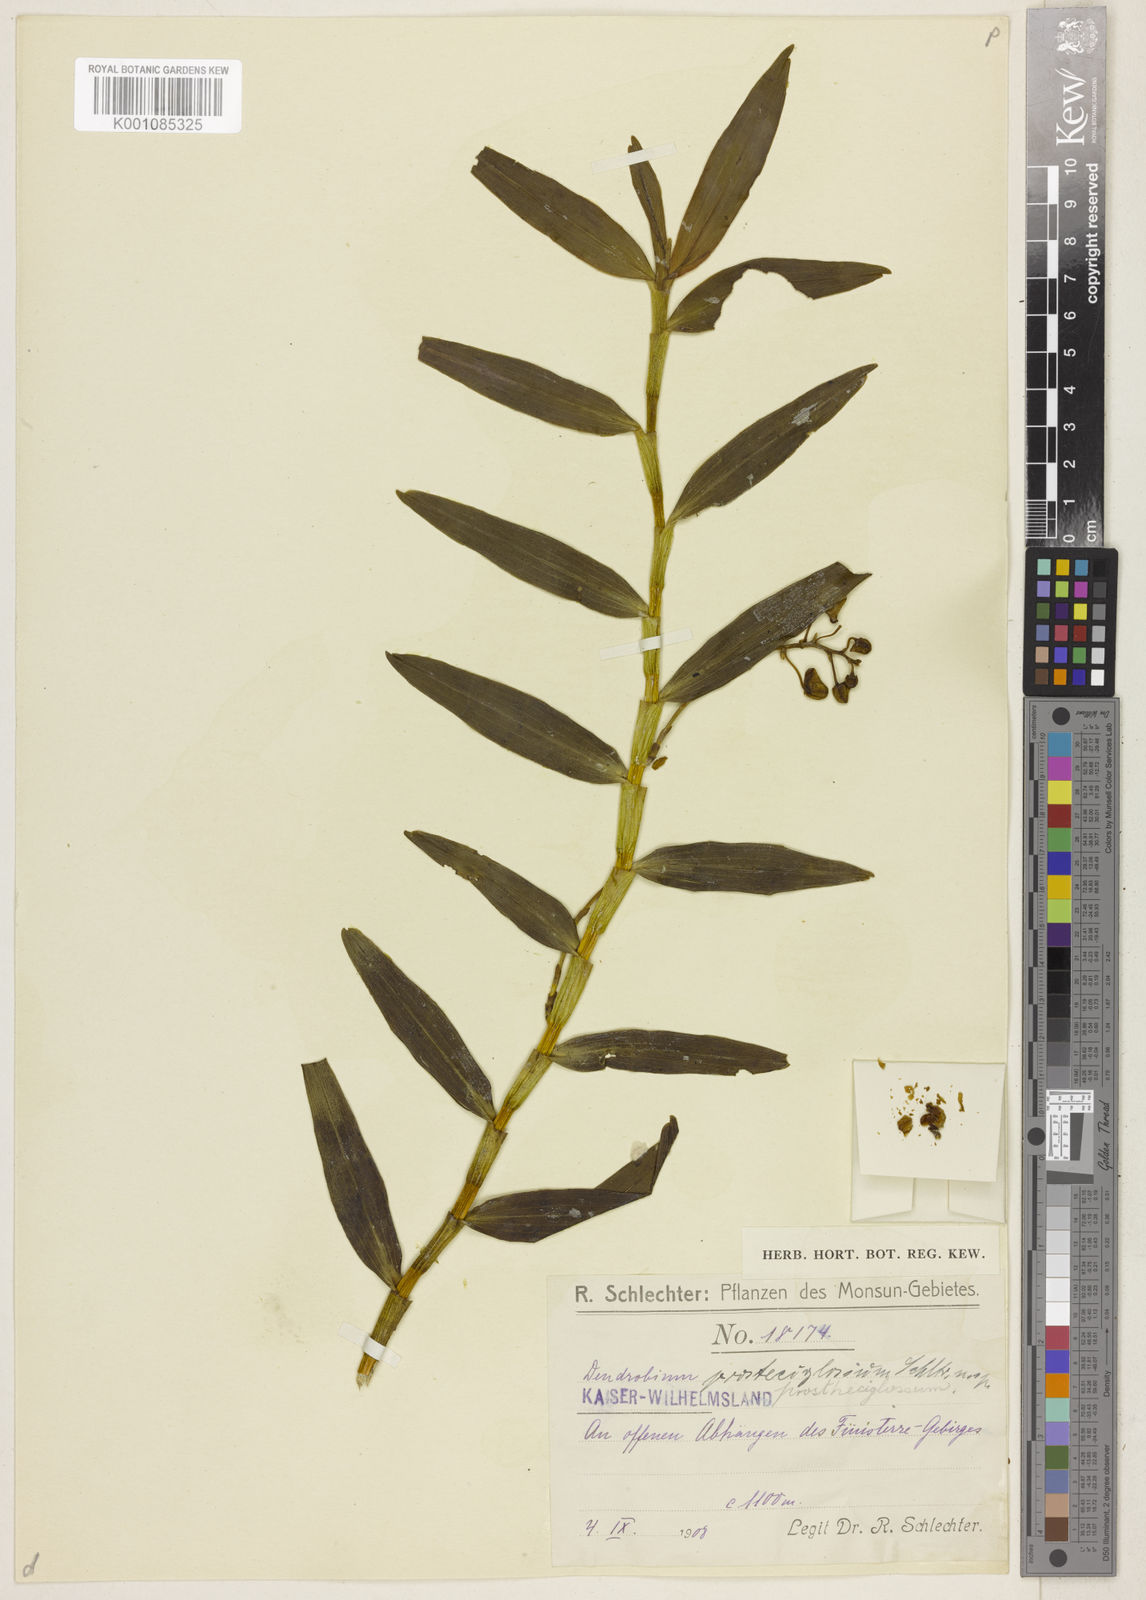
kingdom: Plantae
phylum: Tracheophyta
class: Liliopsida
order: Asparagales
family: Orchidaceae
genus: Dendrobium
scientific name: Dendrobium prostheciglossum
